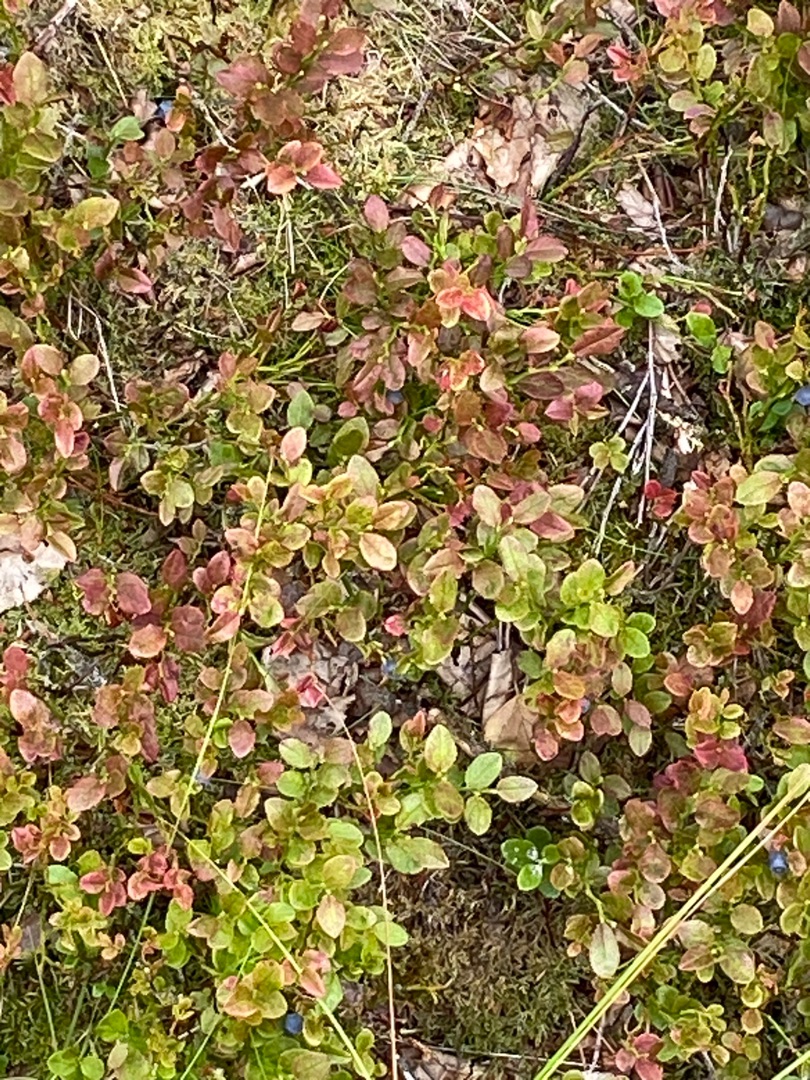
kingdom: Plantae
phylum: Tracheophyta
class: Magnoliopsida
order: Ericales
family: Ericaceae
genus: Vaccinium
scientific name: Vaccinium myrtillus
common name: Blåbær
